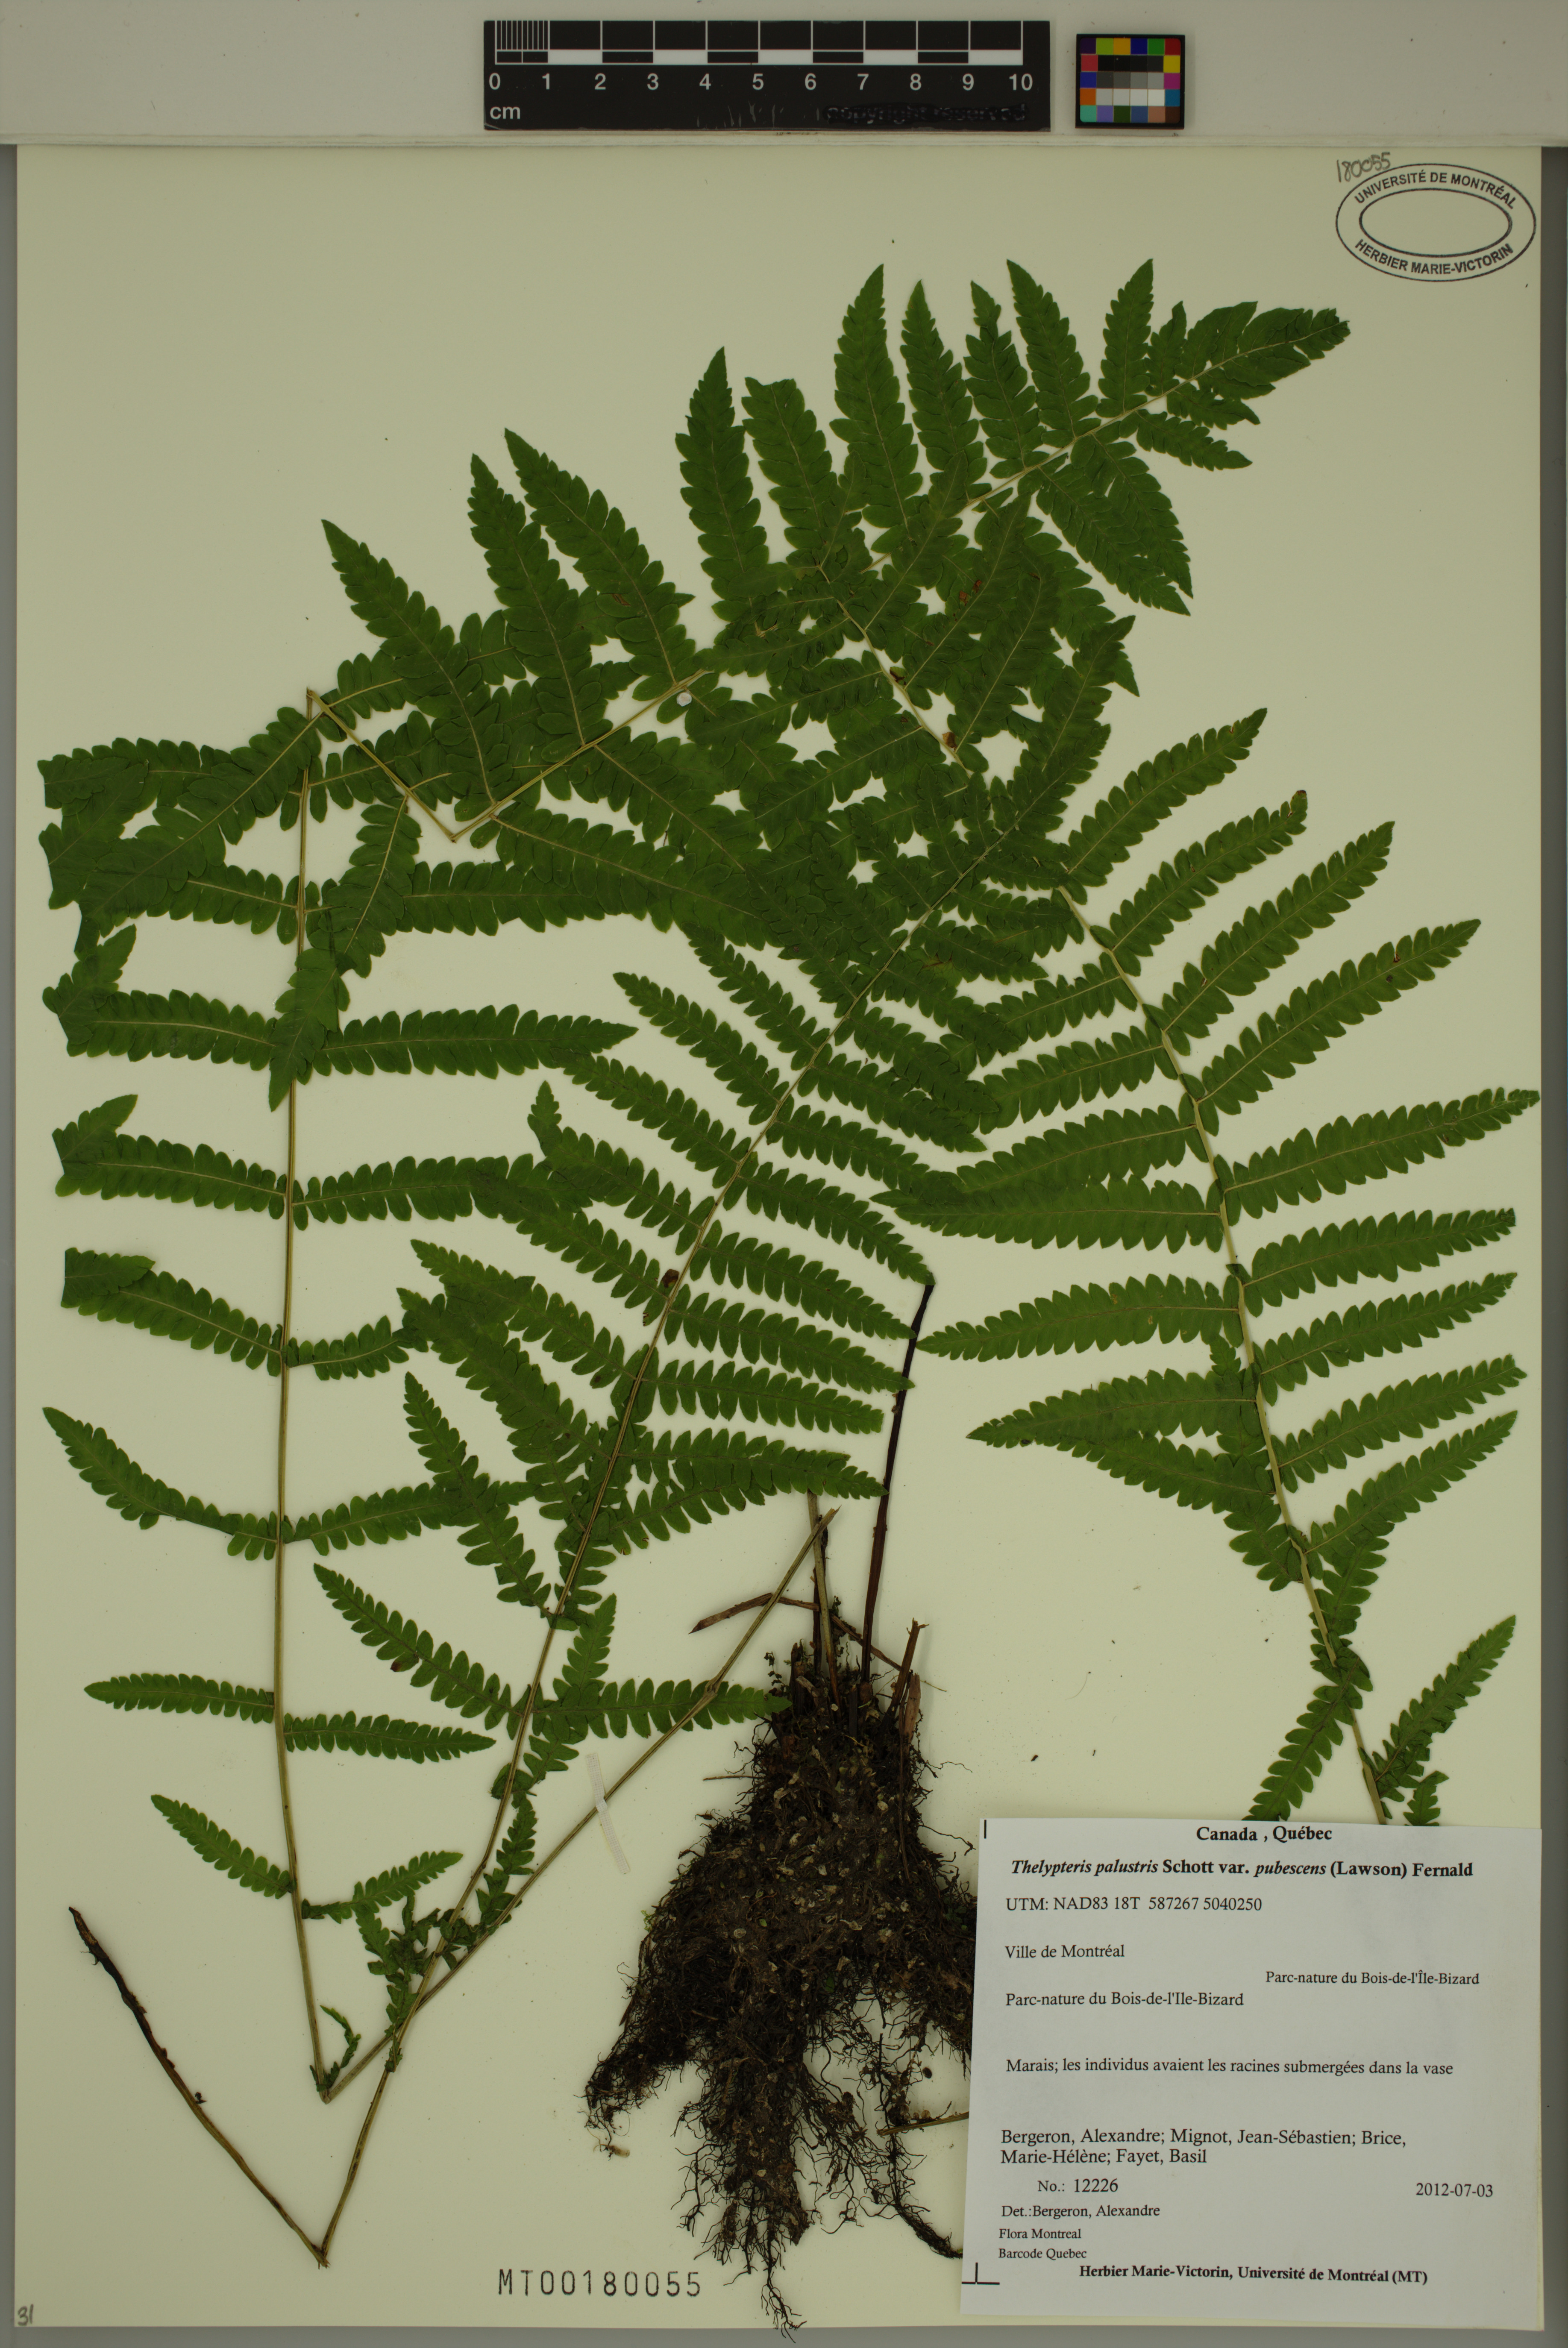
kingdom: Plantae
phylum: Tracheophyta
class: Polypodiopsida
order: Polypodiales
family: Thelypteridaceae
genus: Thelypteris
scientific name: Thelypteris palustris
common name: Marsh fern
